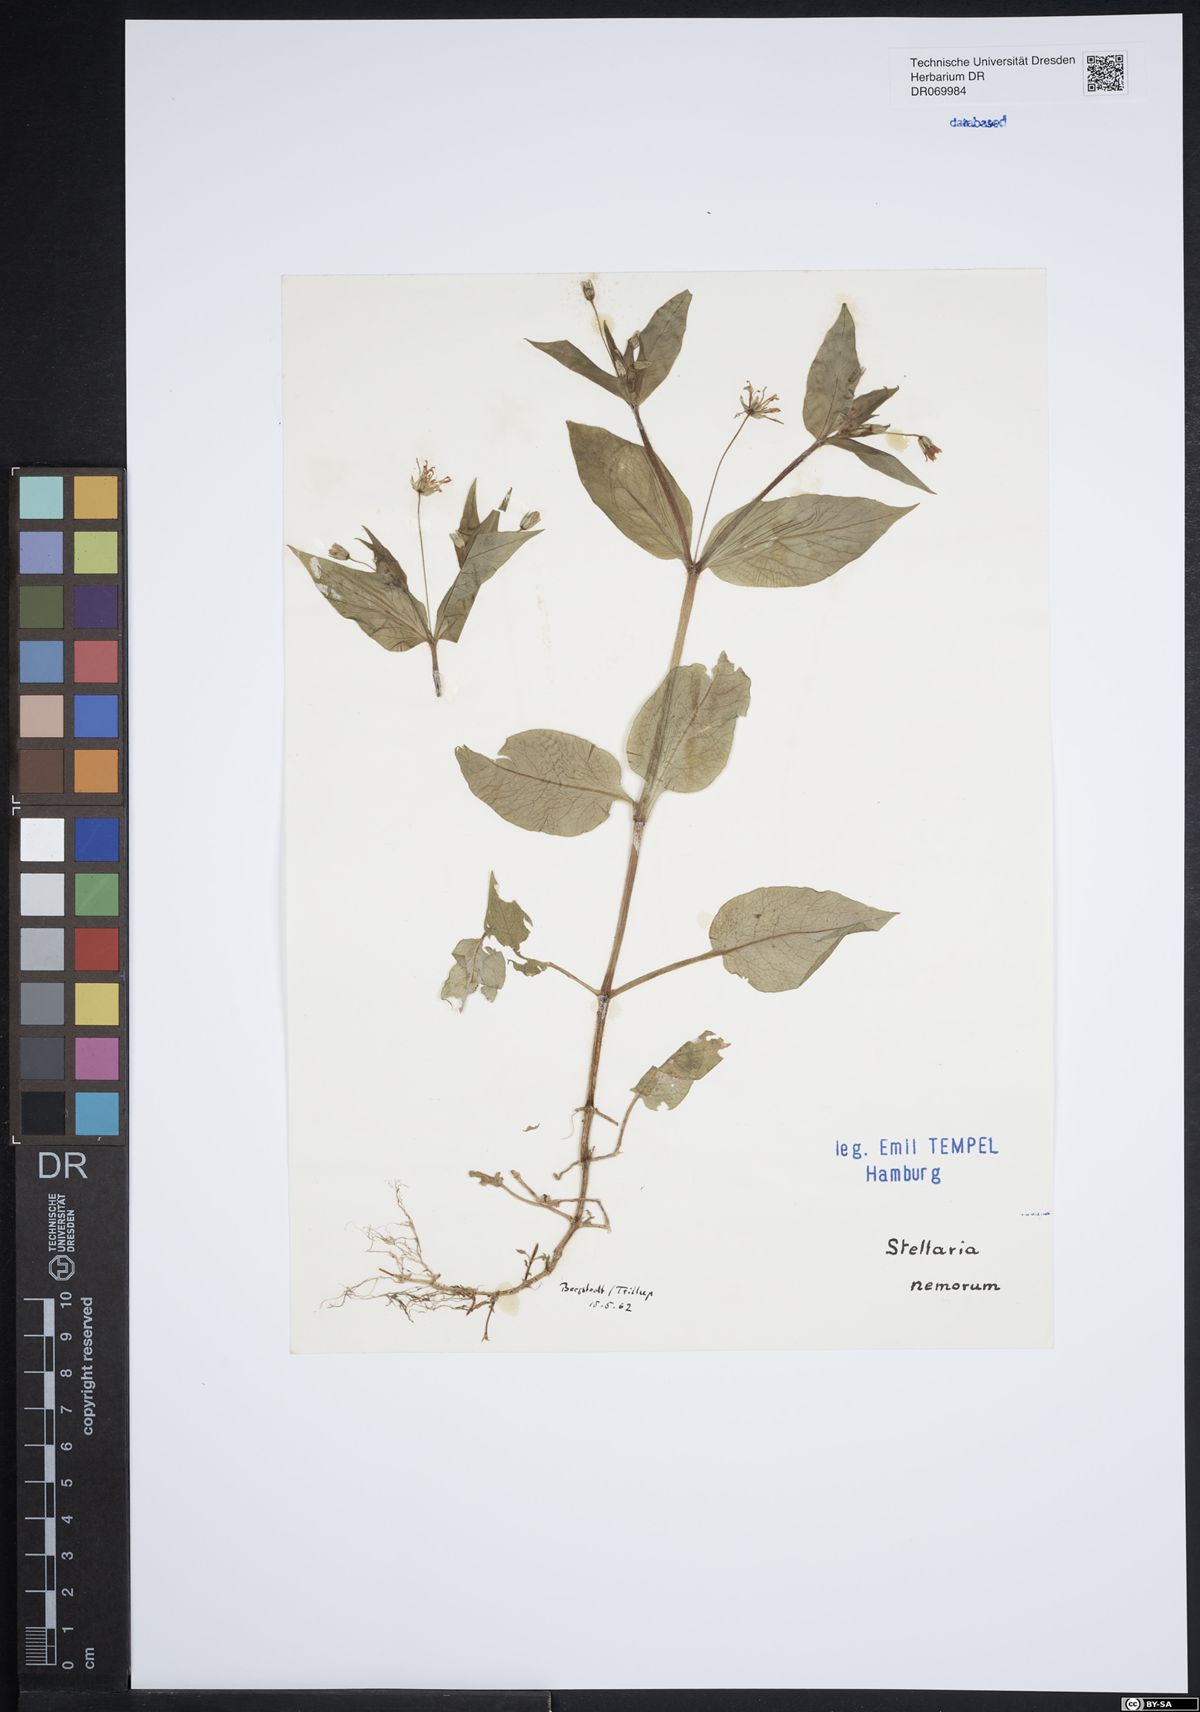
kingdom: Plantae
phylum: Tracheophyta
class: Magnoliopsida
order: Caryophyllales
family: Caryophyllaceae
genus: Stellaria
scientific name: Stellaria nemorum
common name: Wood stitchwort
